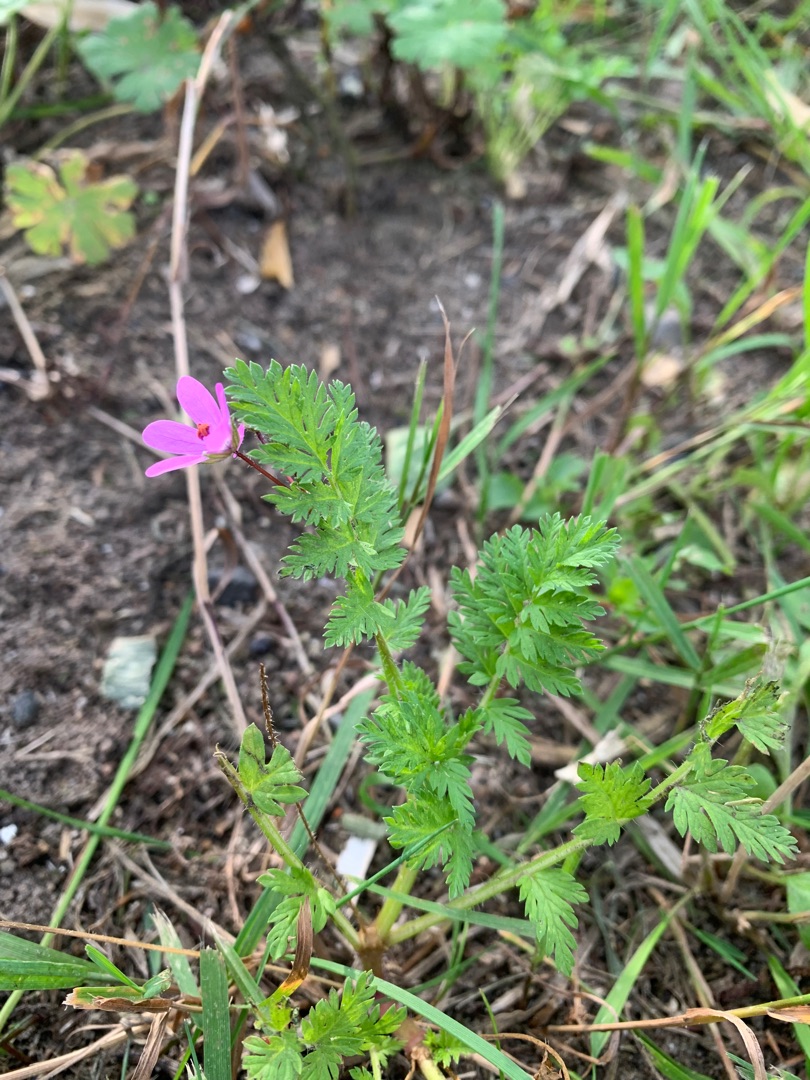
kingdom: Plantae
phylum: Tracheophyta
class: Magnoliopsida
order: Geraniales
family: Geraniaceae
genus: Erodium
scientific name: Erodium cicutarium
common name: Hejrenæb
